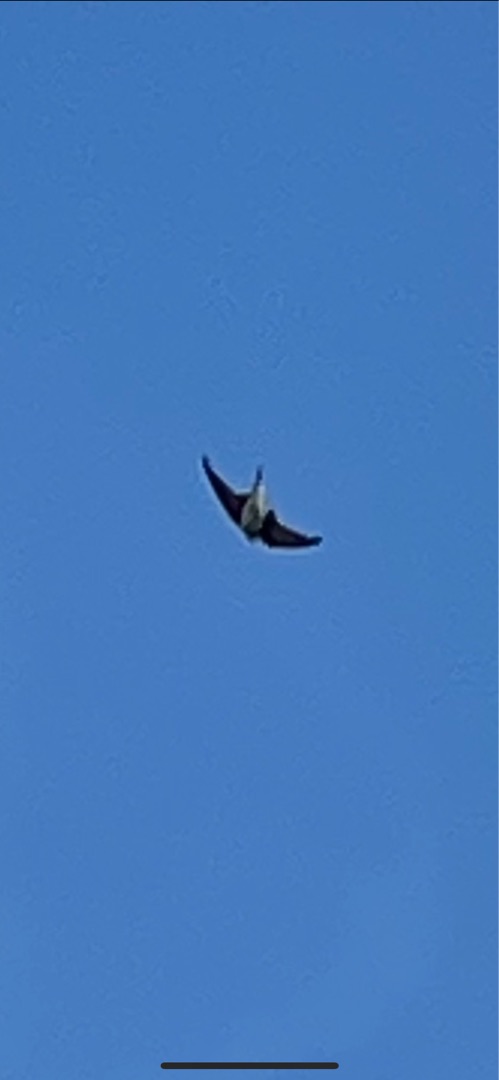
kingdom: Animalia
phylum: Chordata
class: Aves
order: Passeriformes
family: Hirundinidae
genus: Riparia
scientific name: Riparia riparia
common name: Digesvale
